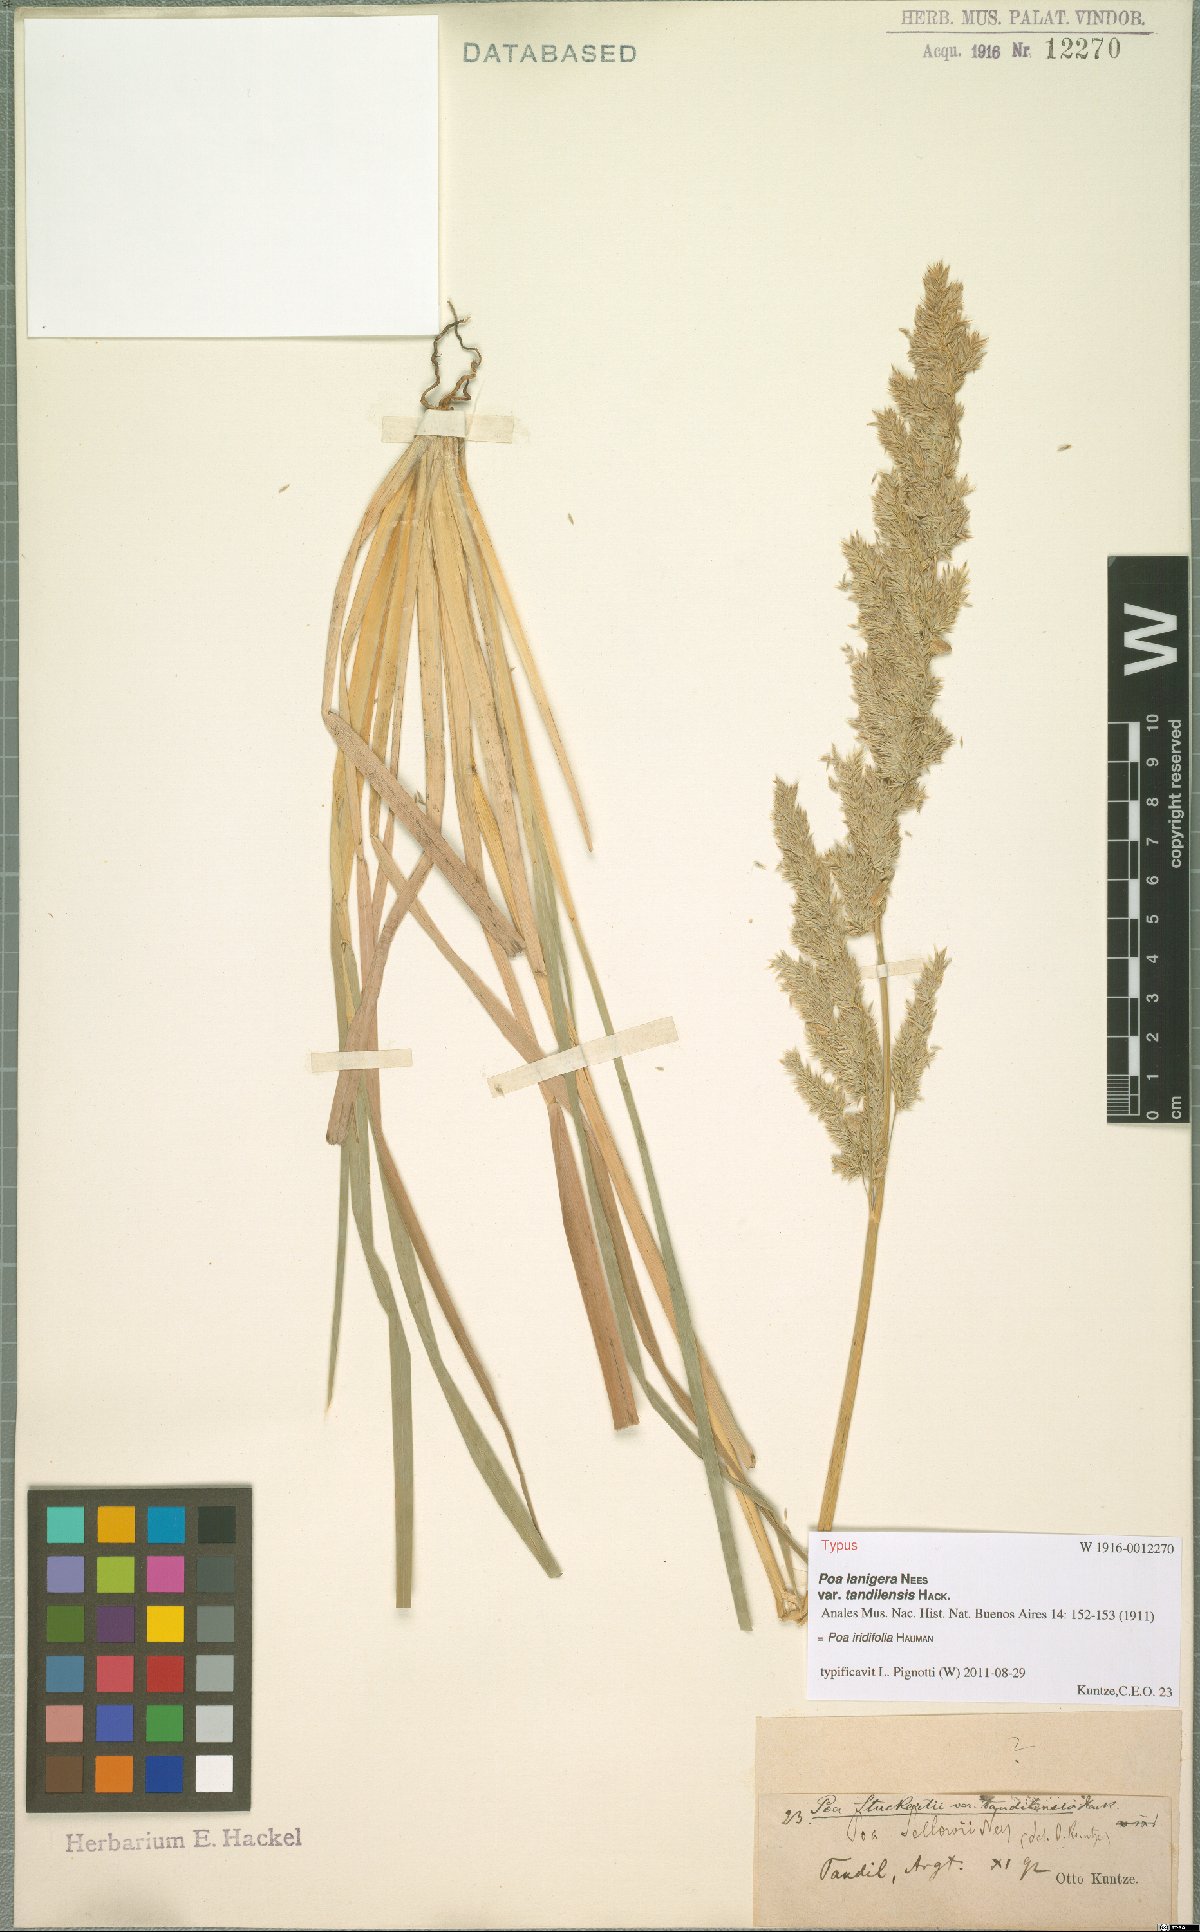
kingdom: Plantae
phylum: Tracheophyta
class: Liliopsida
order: Poales
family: Poaceae
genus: Poa
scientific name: Poa iridifolia
